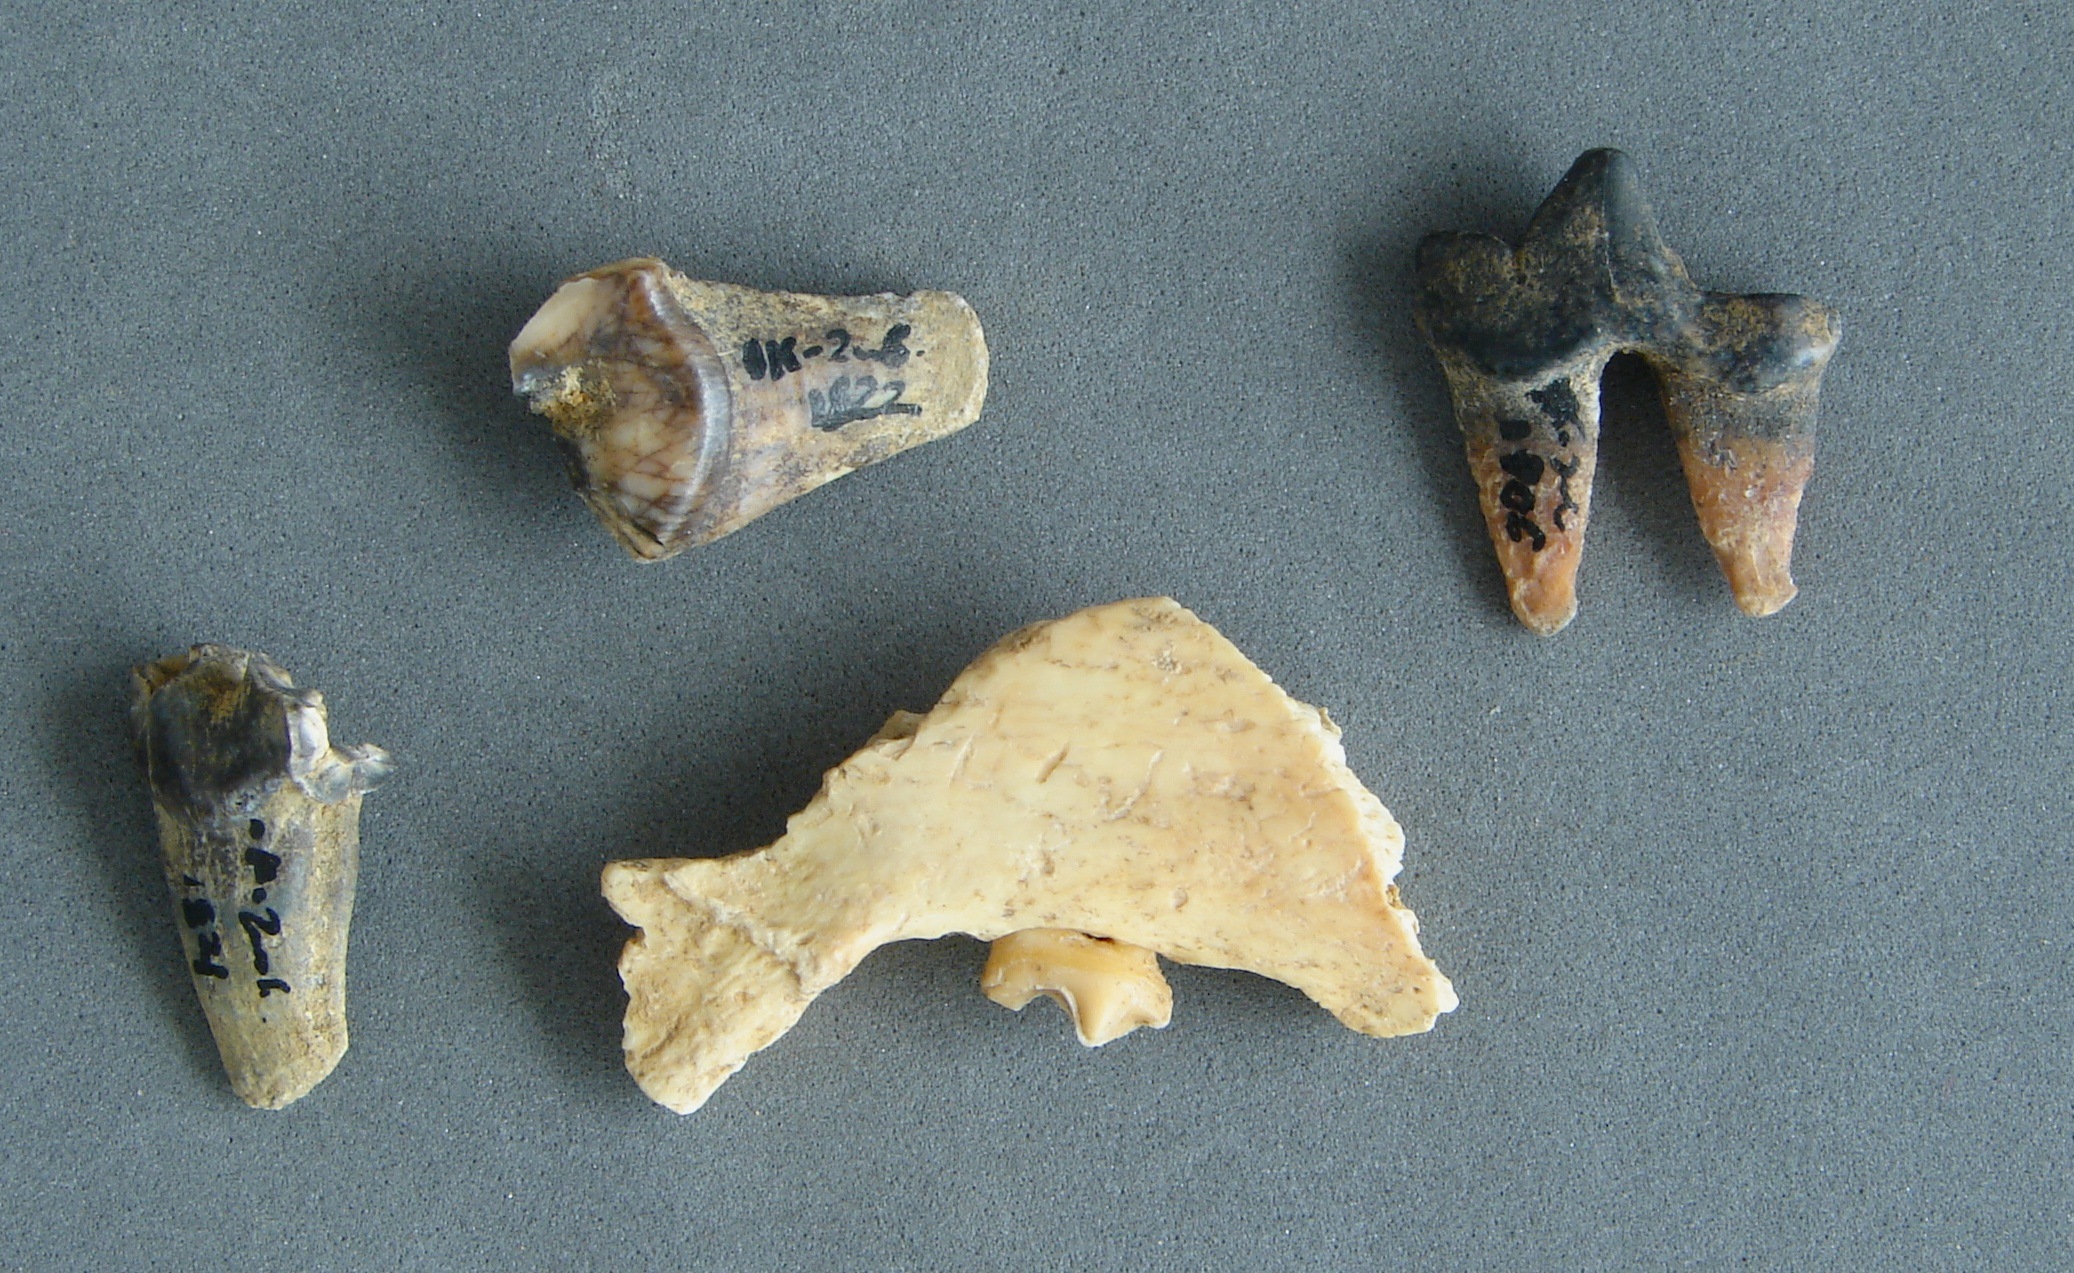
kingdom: Animalia
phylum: Chordata
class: Mammalia
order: Carnivora
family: Canidae
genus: Vulpes
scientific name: Vulpes vulpes
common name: Red fox
